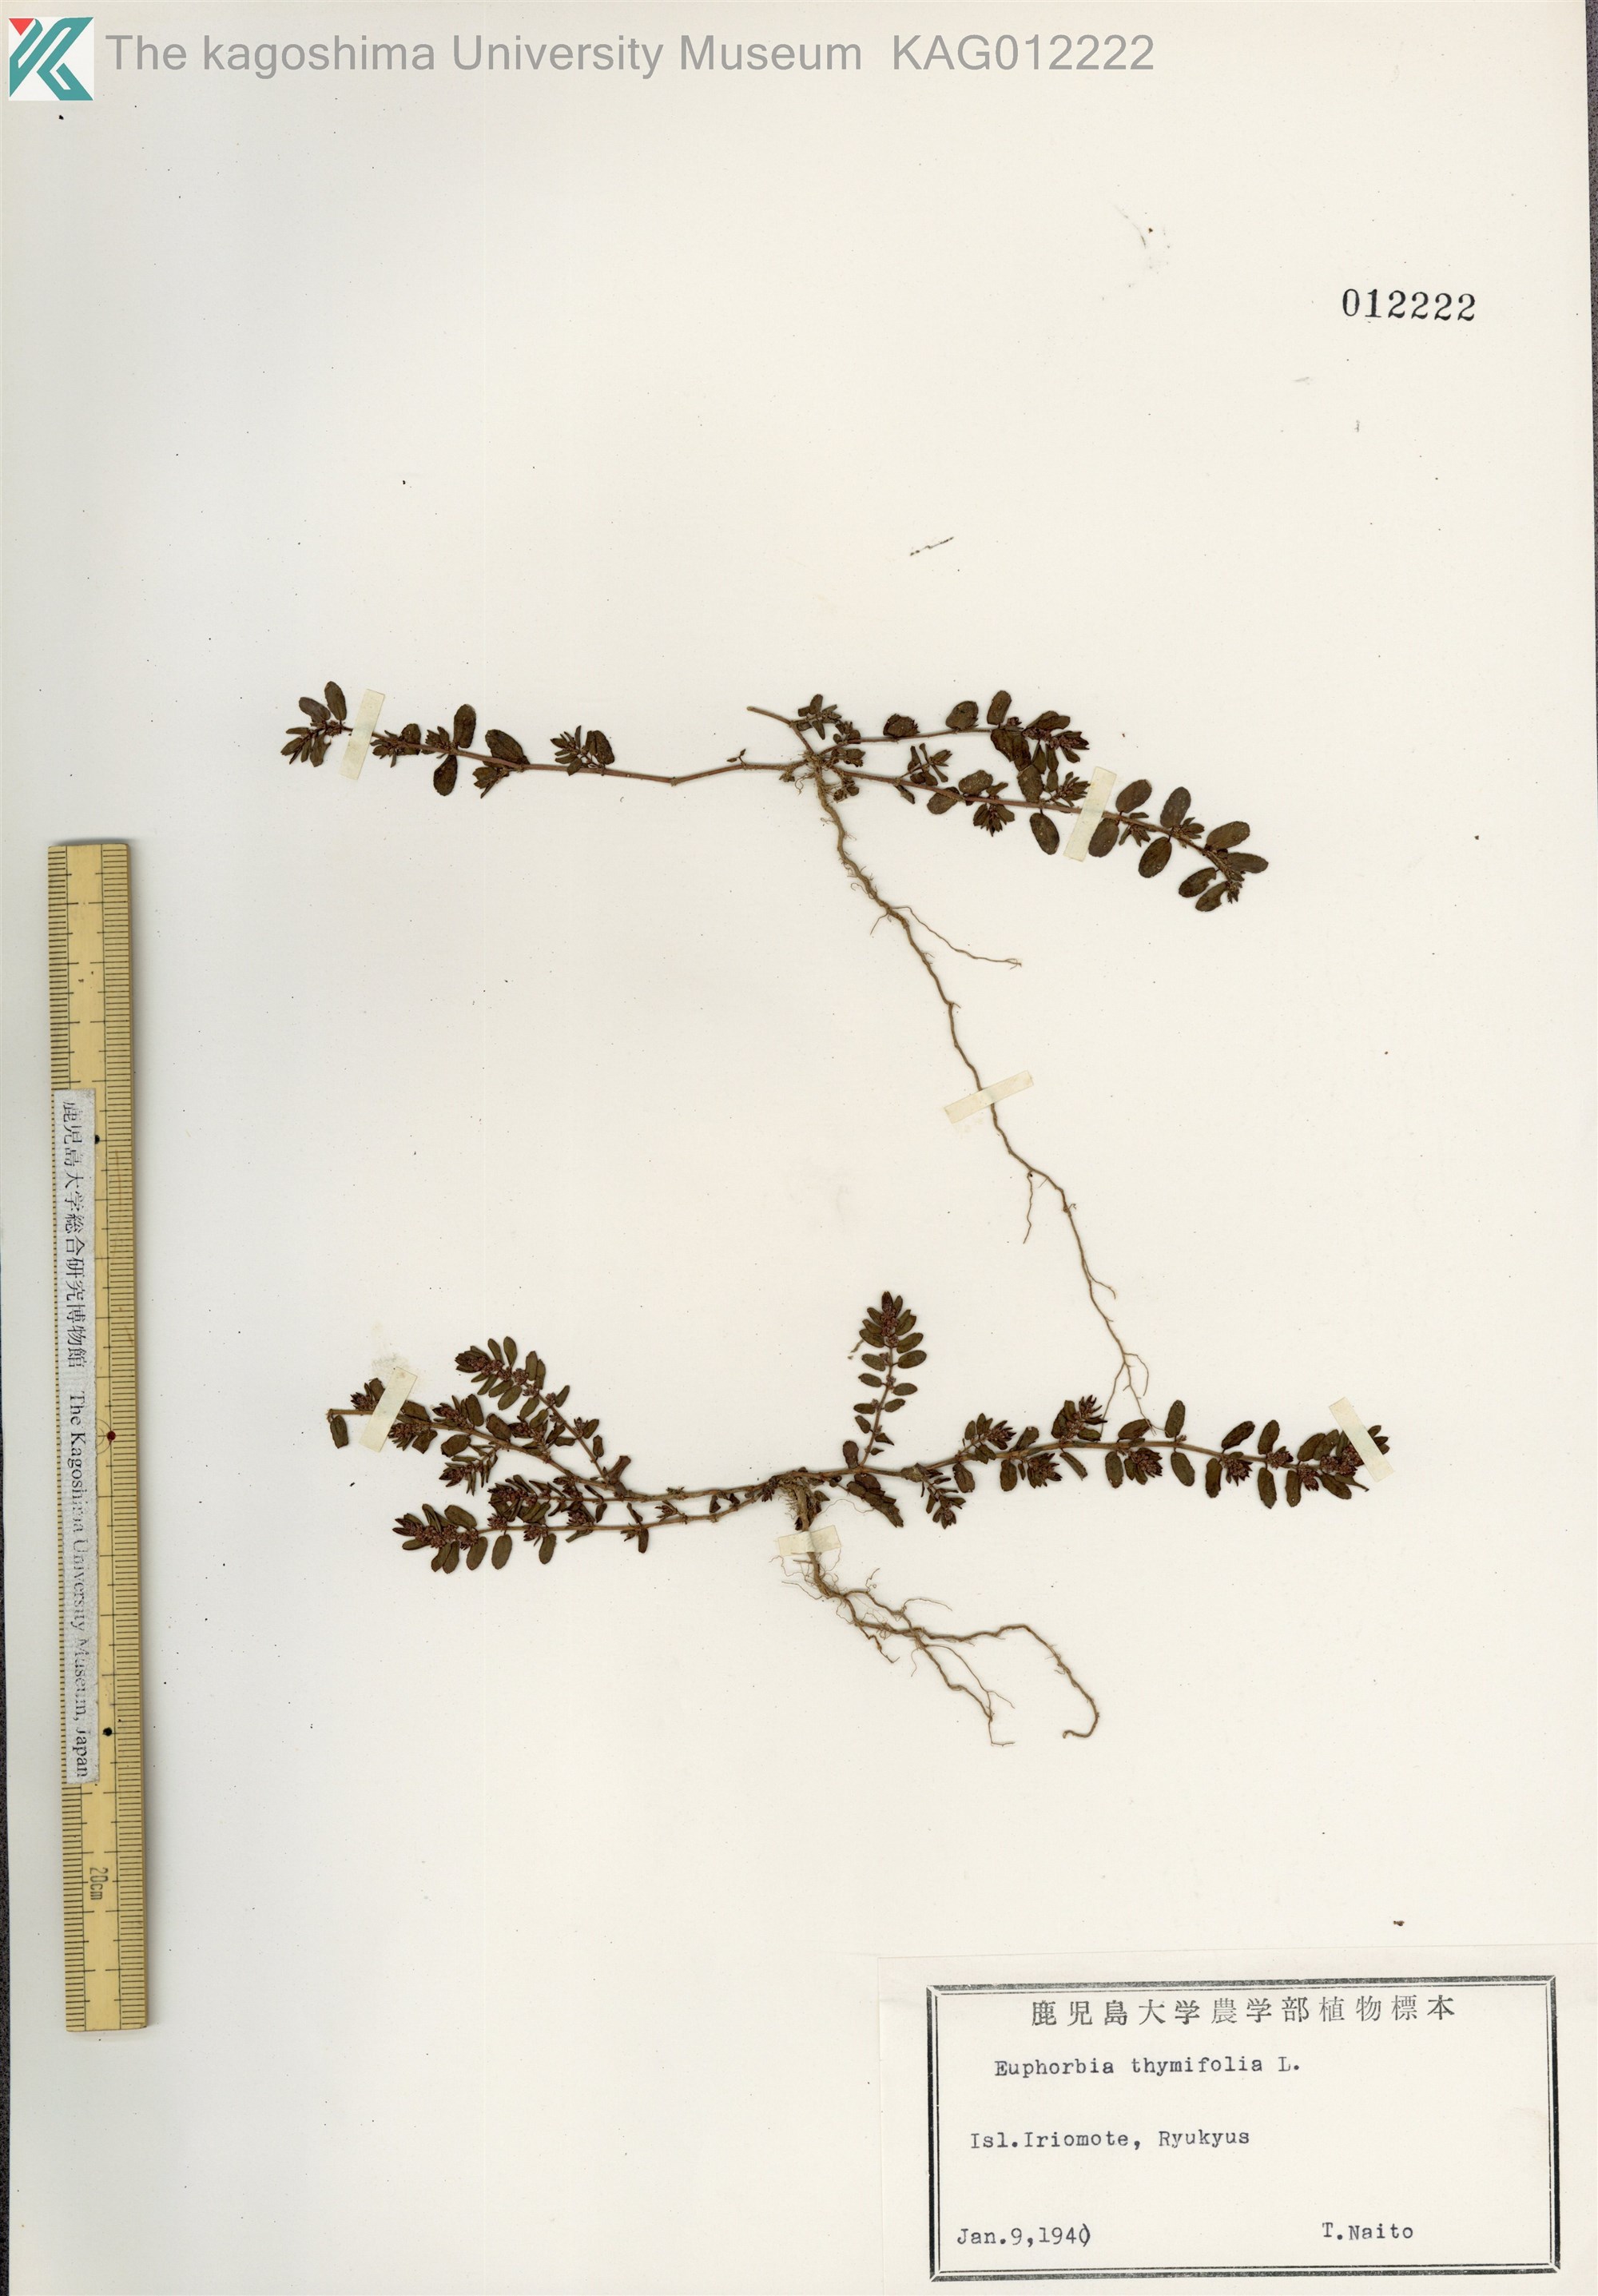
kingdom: Plantae
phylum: Tracheophyta
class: Magnoliopsida
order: Malpighiales
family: Euphorbiaceae
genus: Euphorbia
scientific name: Euphorbia thymifolia
